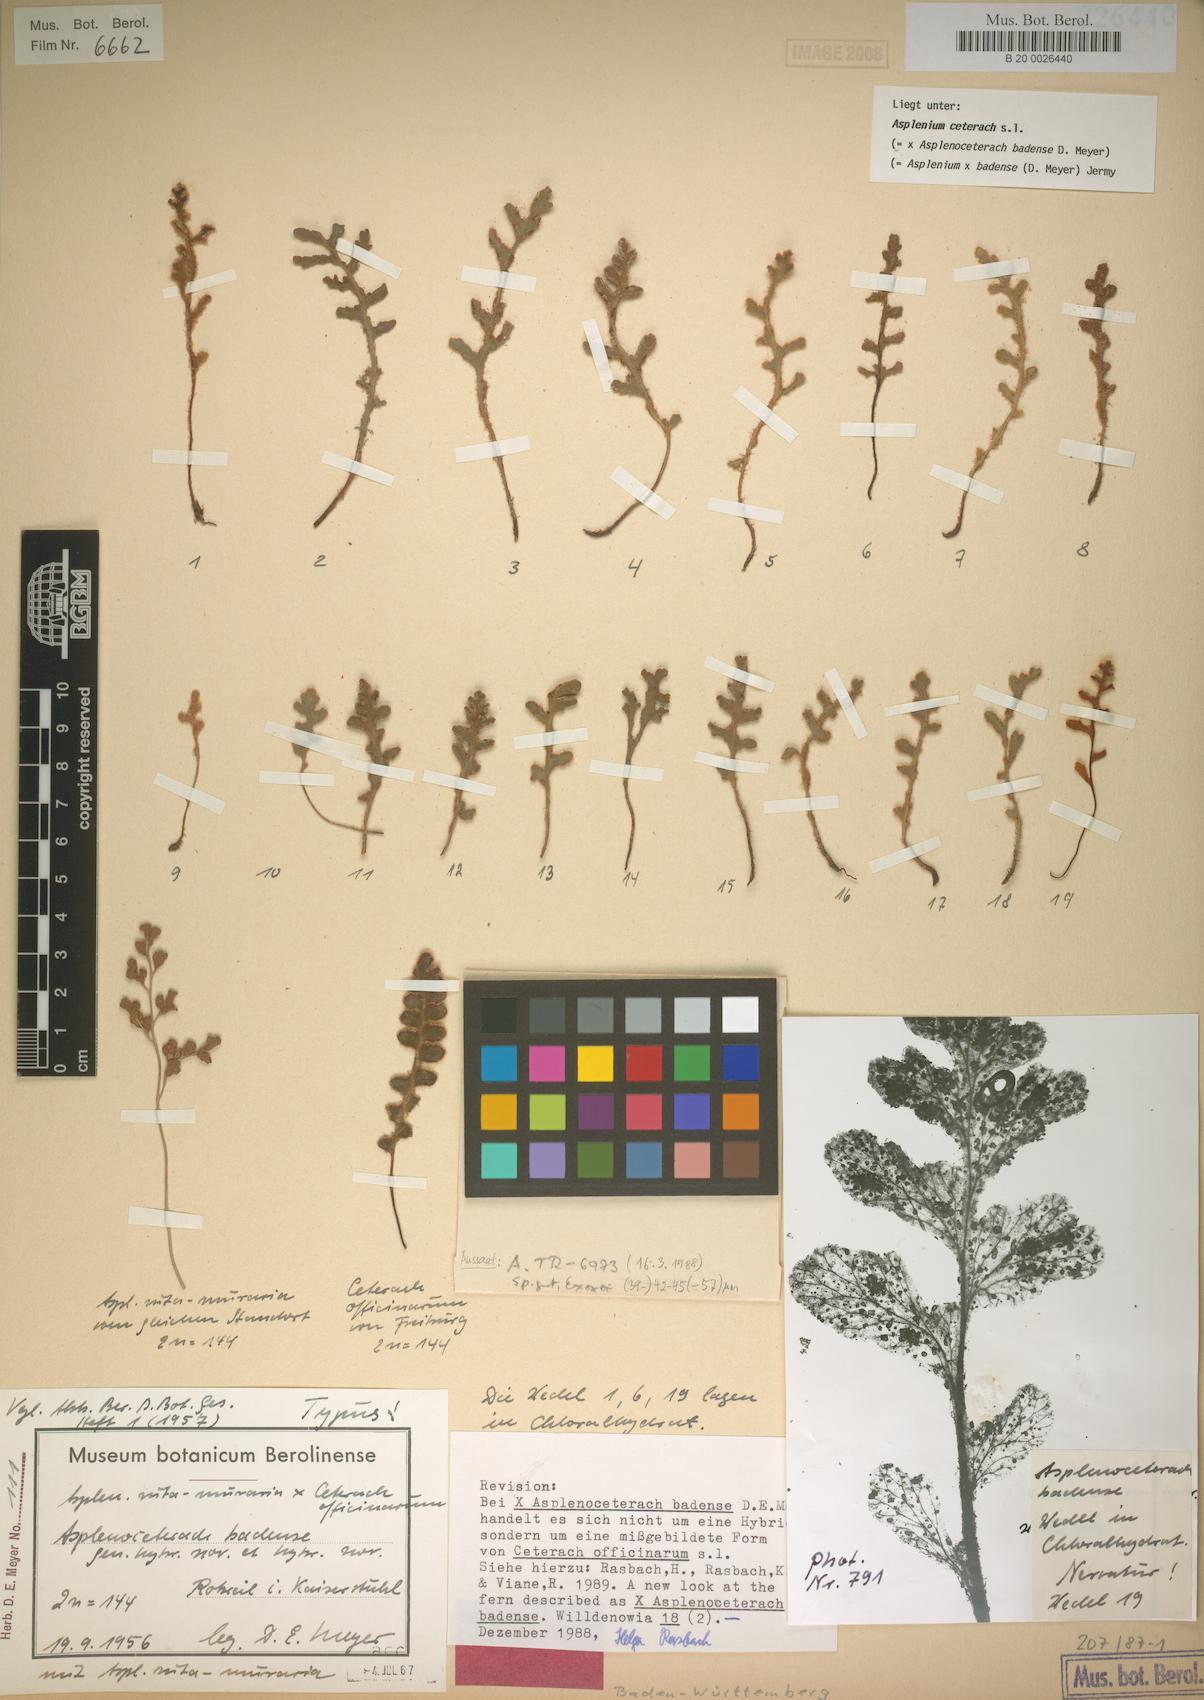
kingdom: Plantae
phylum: Tracheophyta
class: Polypodiopsida
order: Polypodiales
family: Aspleniaceae
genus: Asplenium
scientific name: Asplenium ceterach
